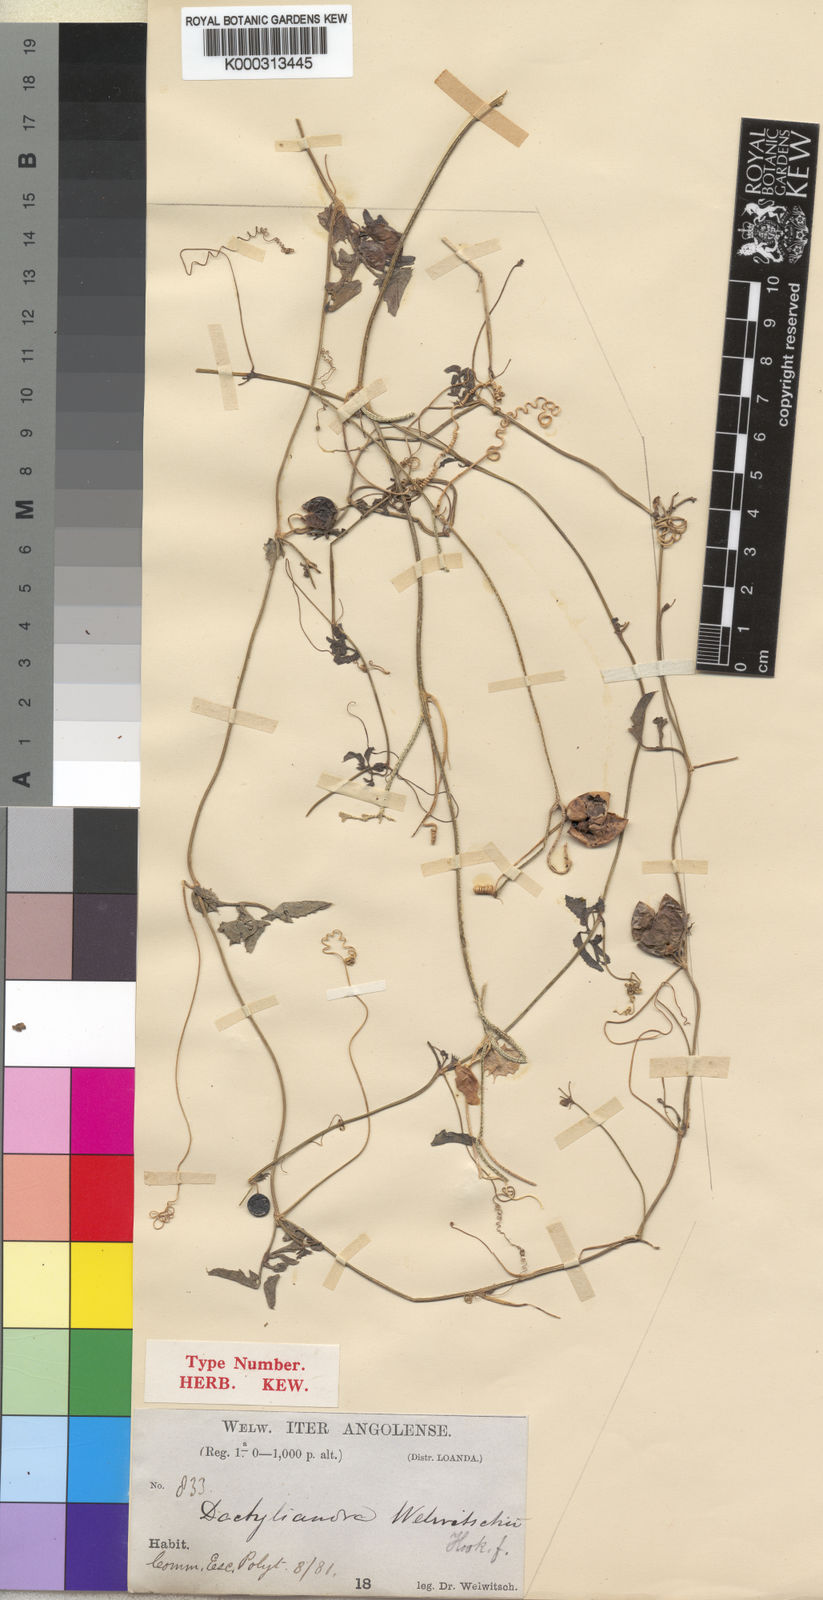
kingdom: Plantae
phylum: Tracheophyta
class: Magnoliopsida
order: Cucurbitales
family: Cucurbitaceae
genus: Dactyliandra
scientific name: Dactyliandra welwitschii
